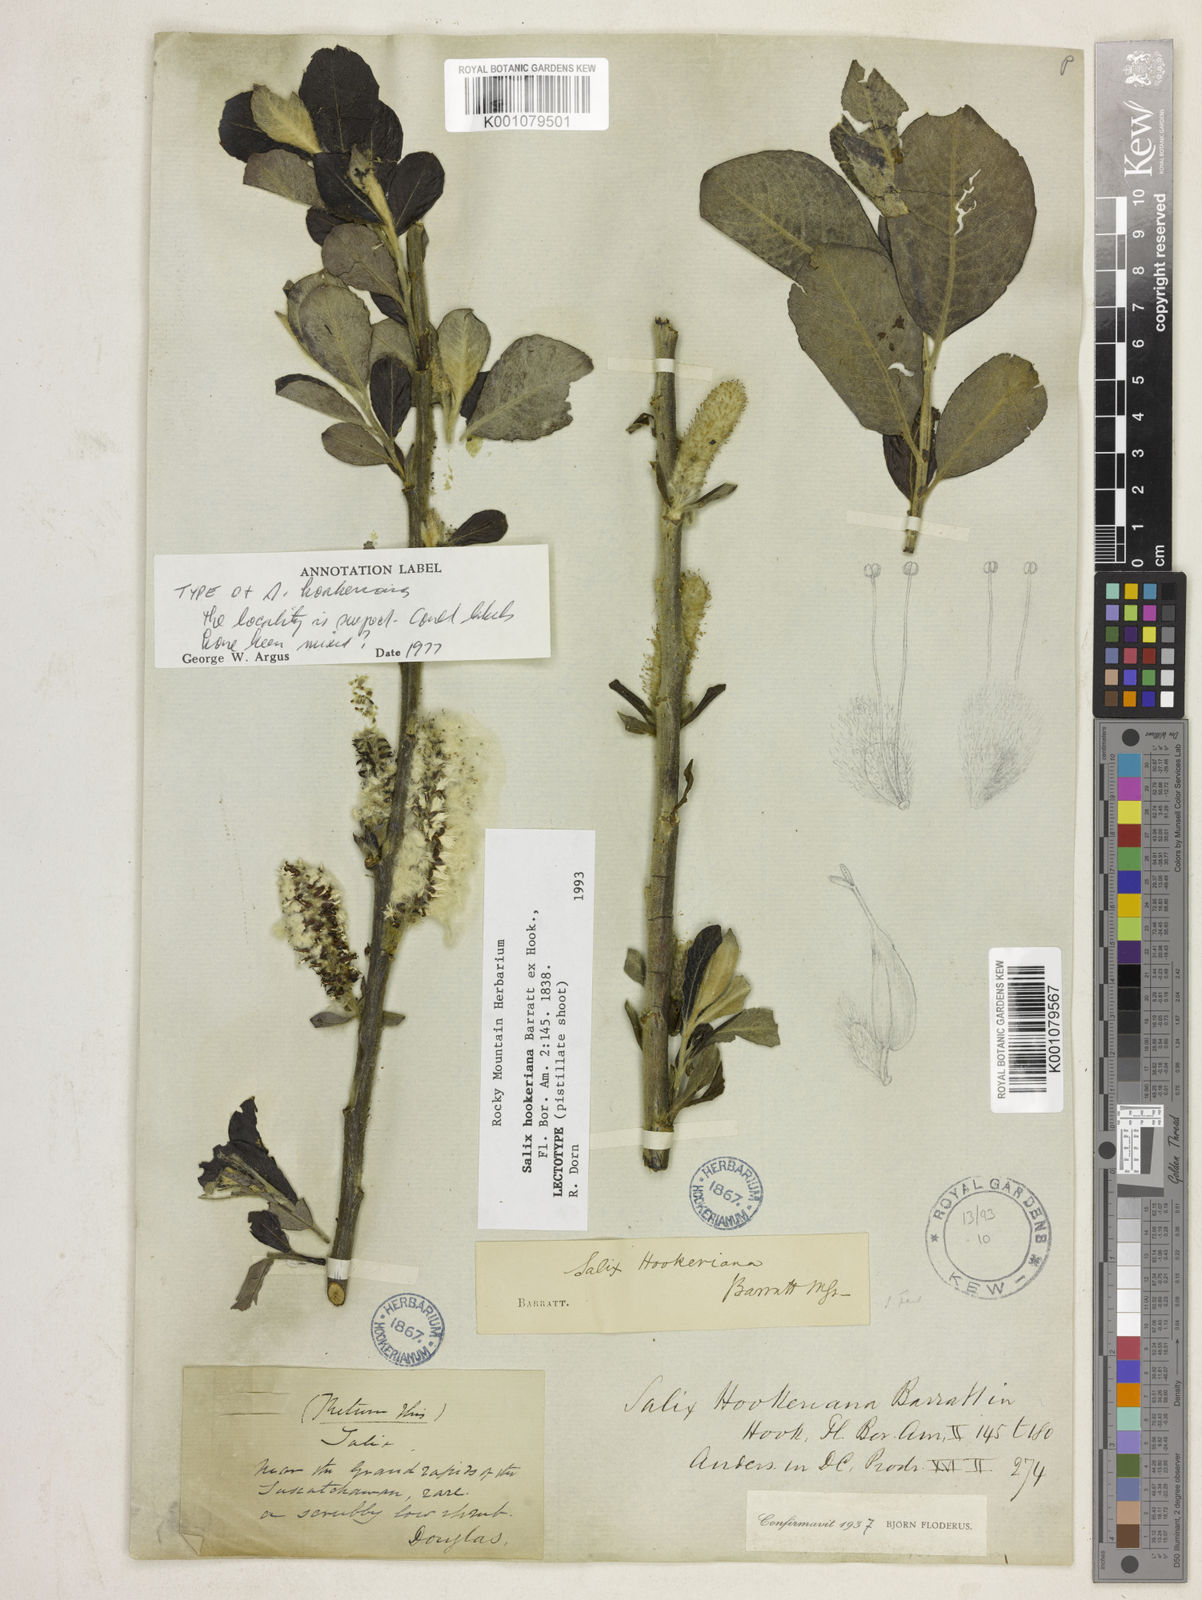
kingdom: Plantae
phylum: Tracheophyta
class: Magnoliopsida
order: Malpighiales
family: Salicaceae
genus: Salix
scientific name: Salix hookeriana
